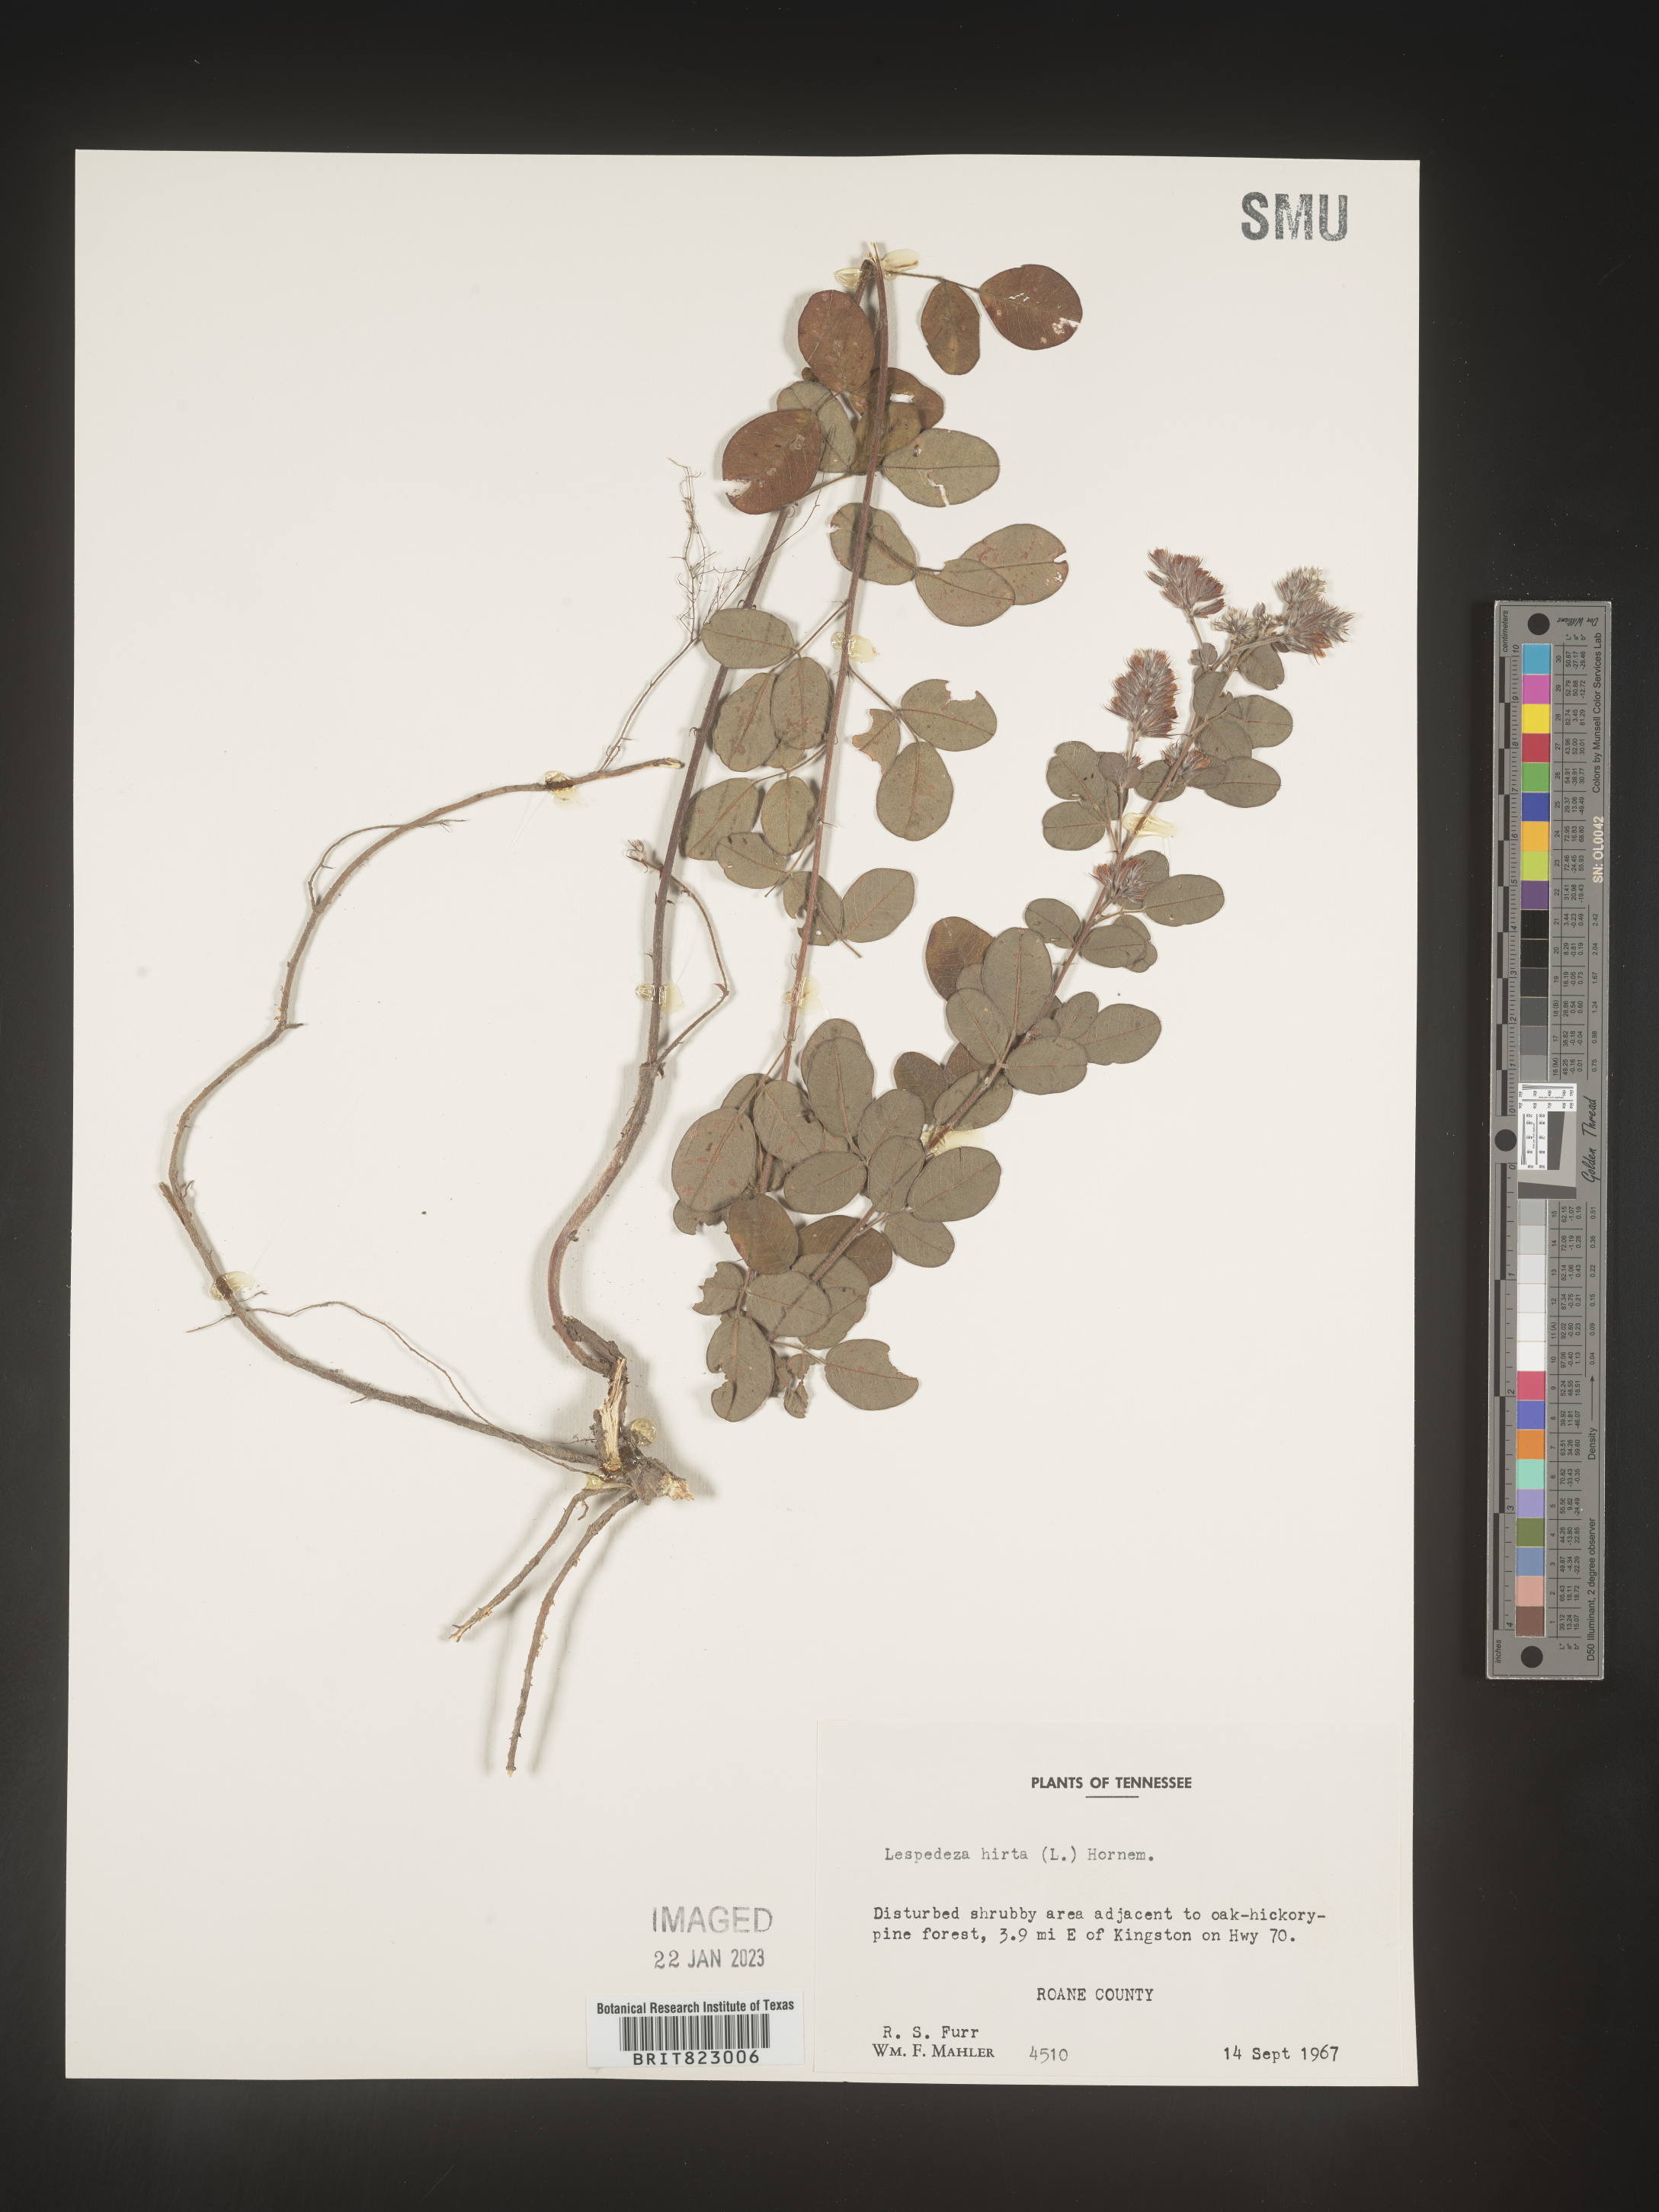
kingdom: Plantae
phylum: Tracheophyta
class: Magnoliopsida
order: Fabales
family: Fabaceae
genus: Lespedeza
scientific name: Lespedeza hirta
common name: Hairy lespedeza
